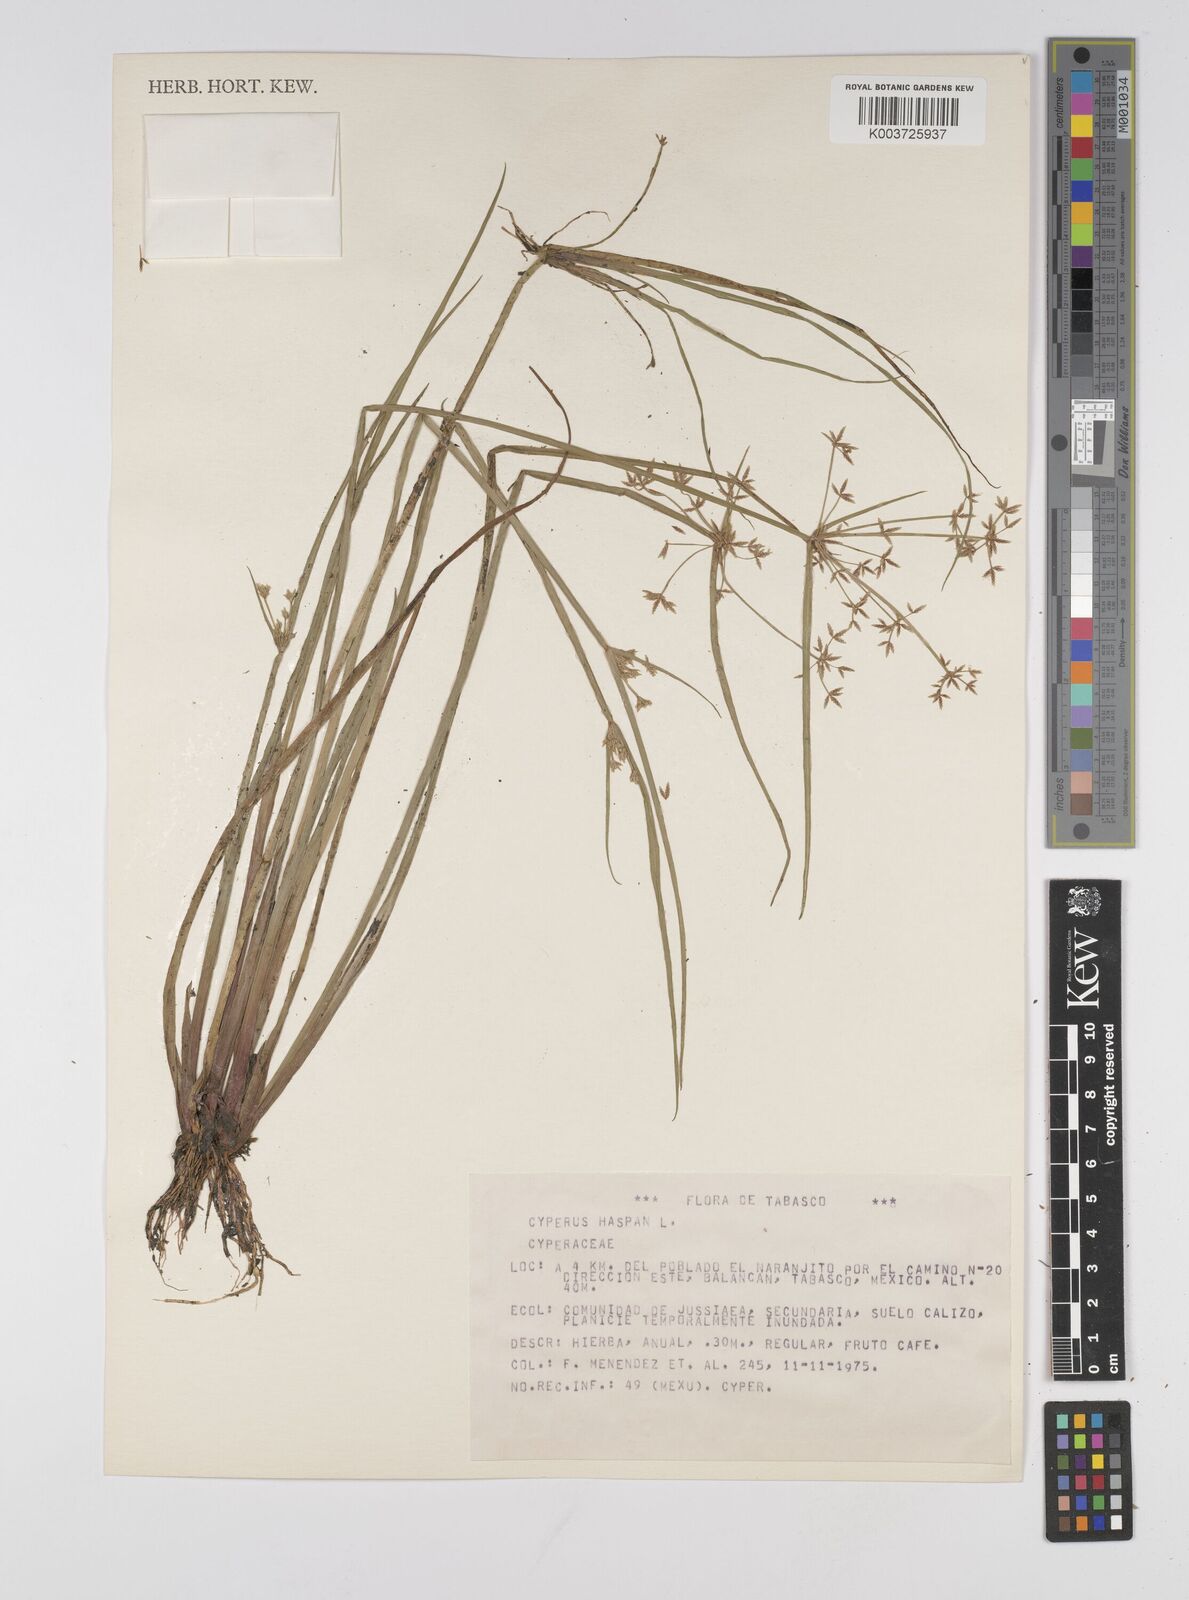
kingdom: Plantae
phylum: Tracheophyta
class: Liliopsida
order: Poales
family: Cyperaceae
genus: Cyperus
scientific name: Cyperus haspan
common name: Haspan flatsedge
